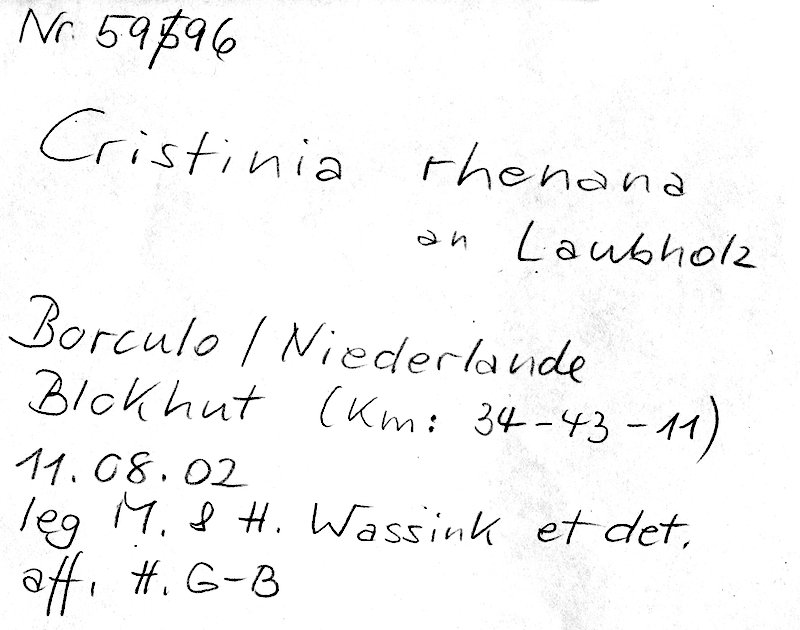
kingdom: Fungi
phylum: Basidiomycota
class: Agaricomycetes
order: Agaricales
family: Stephanosporaceae
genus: Cristinia
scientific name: Cristinia rhenana
